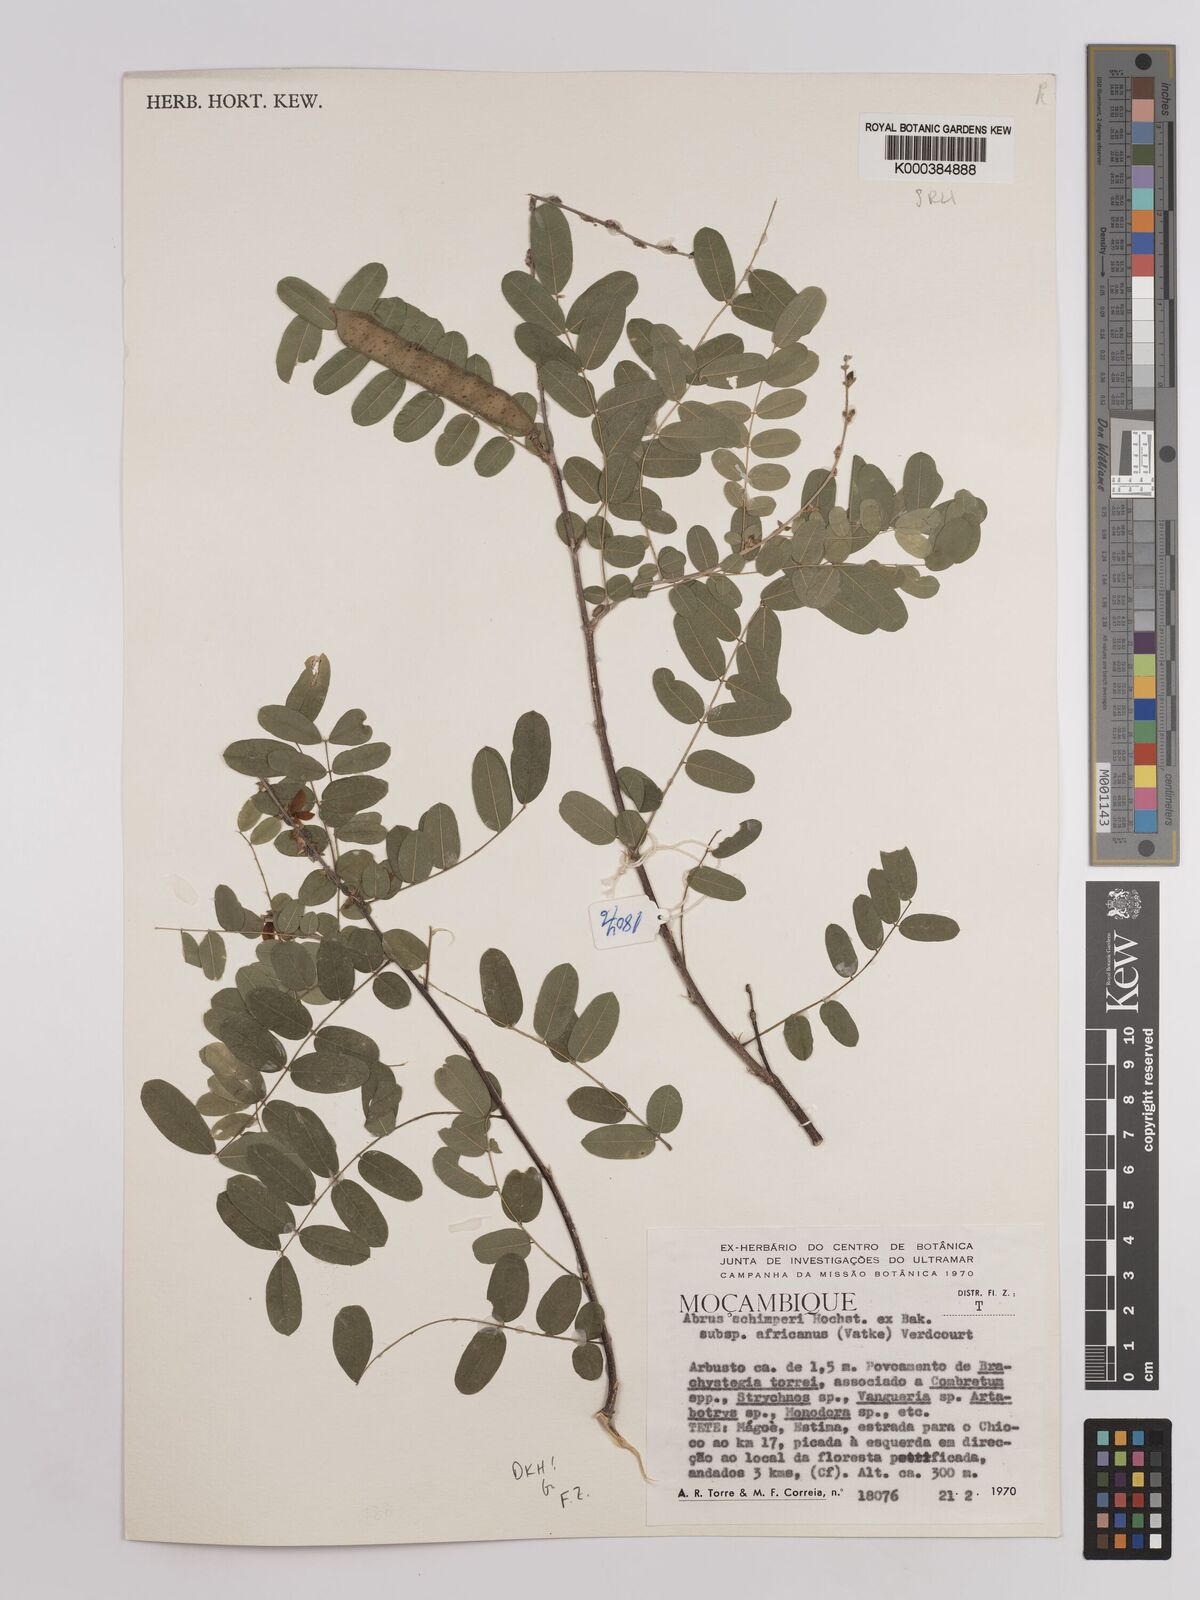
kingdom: Plantae
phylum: Tracheophyta
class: Magnoliopsida
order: Fabales
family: Fabaceae
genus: Abrus
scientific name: Abrus
